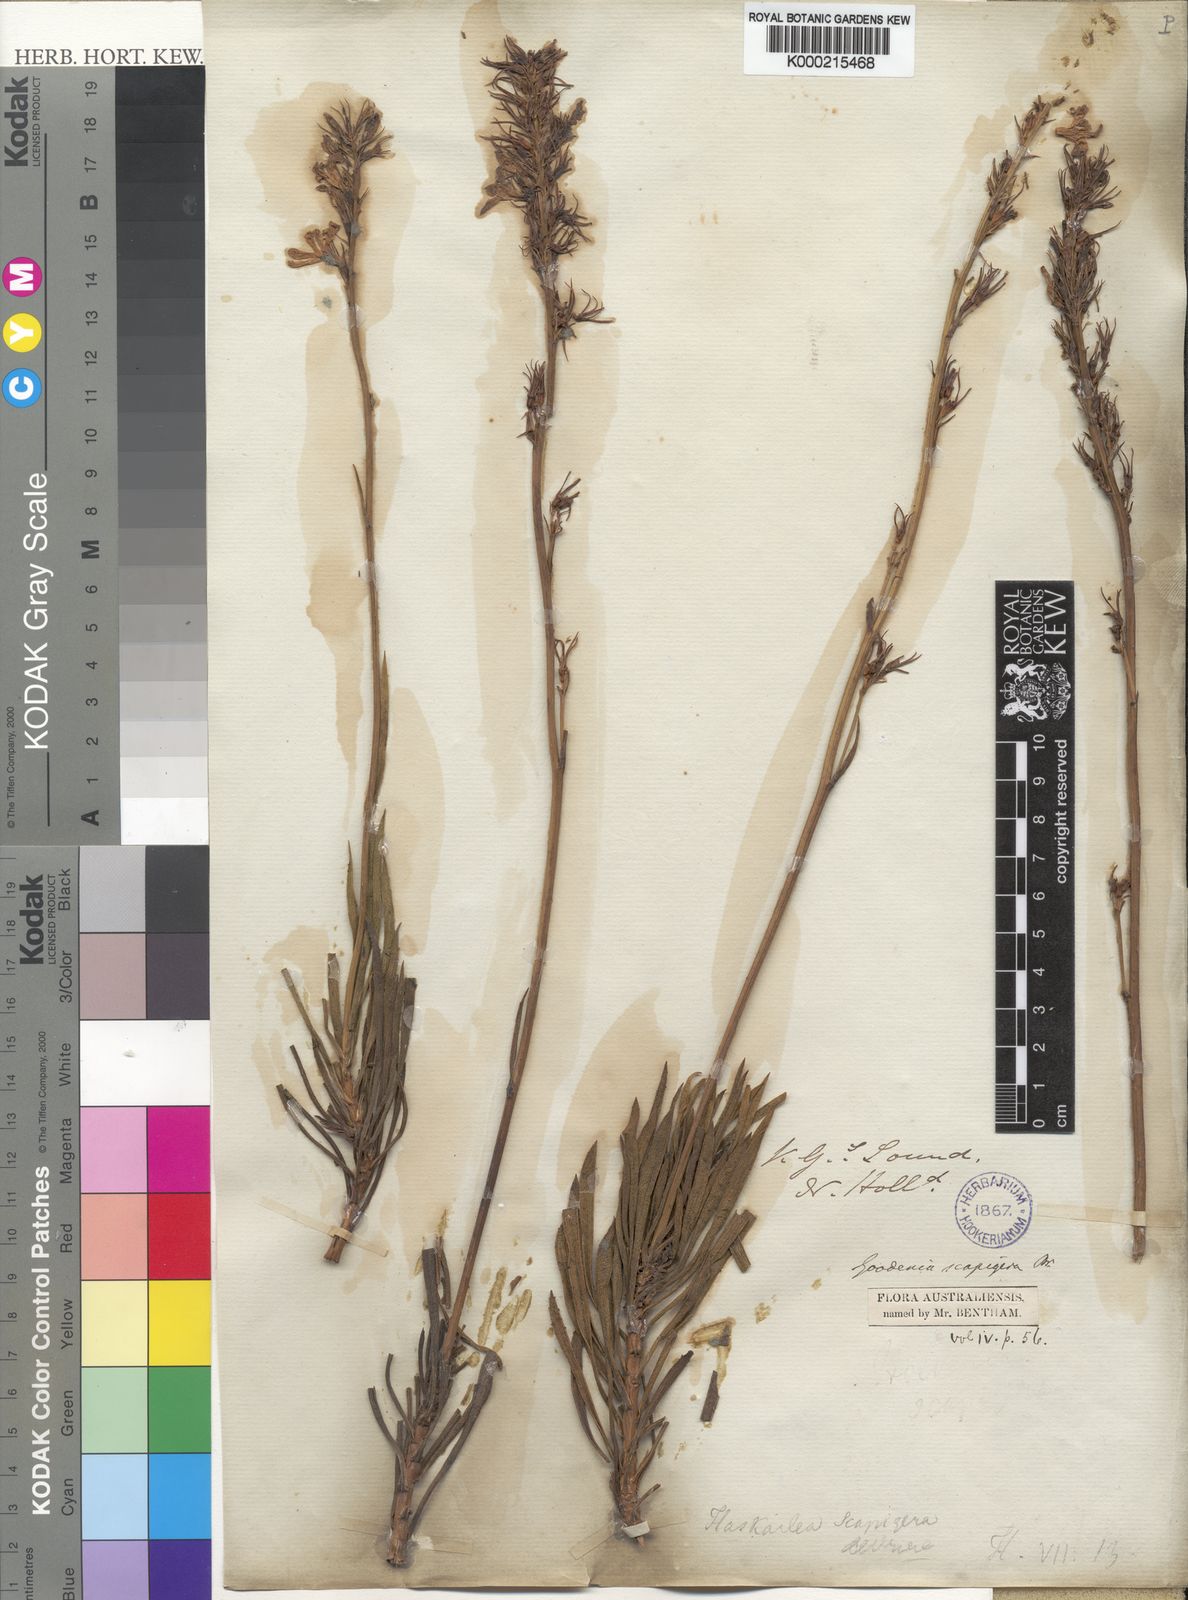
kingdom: Plantae
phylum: Tracheophyta
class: Magnoliopsida
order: Asterales
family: Goodeniaceae
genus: Goodenia
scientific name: Goodenia scapigera
